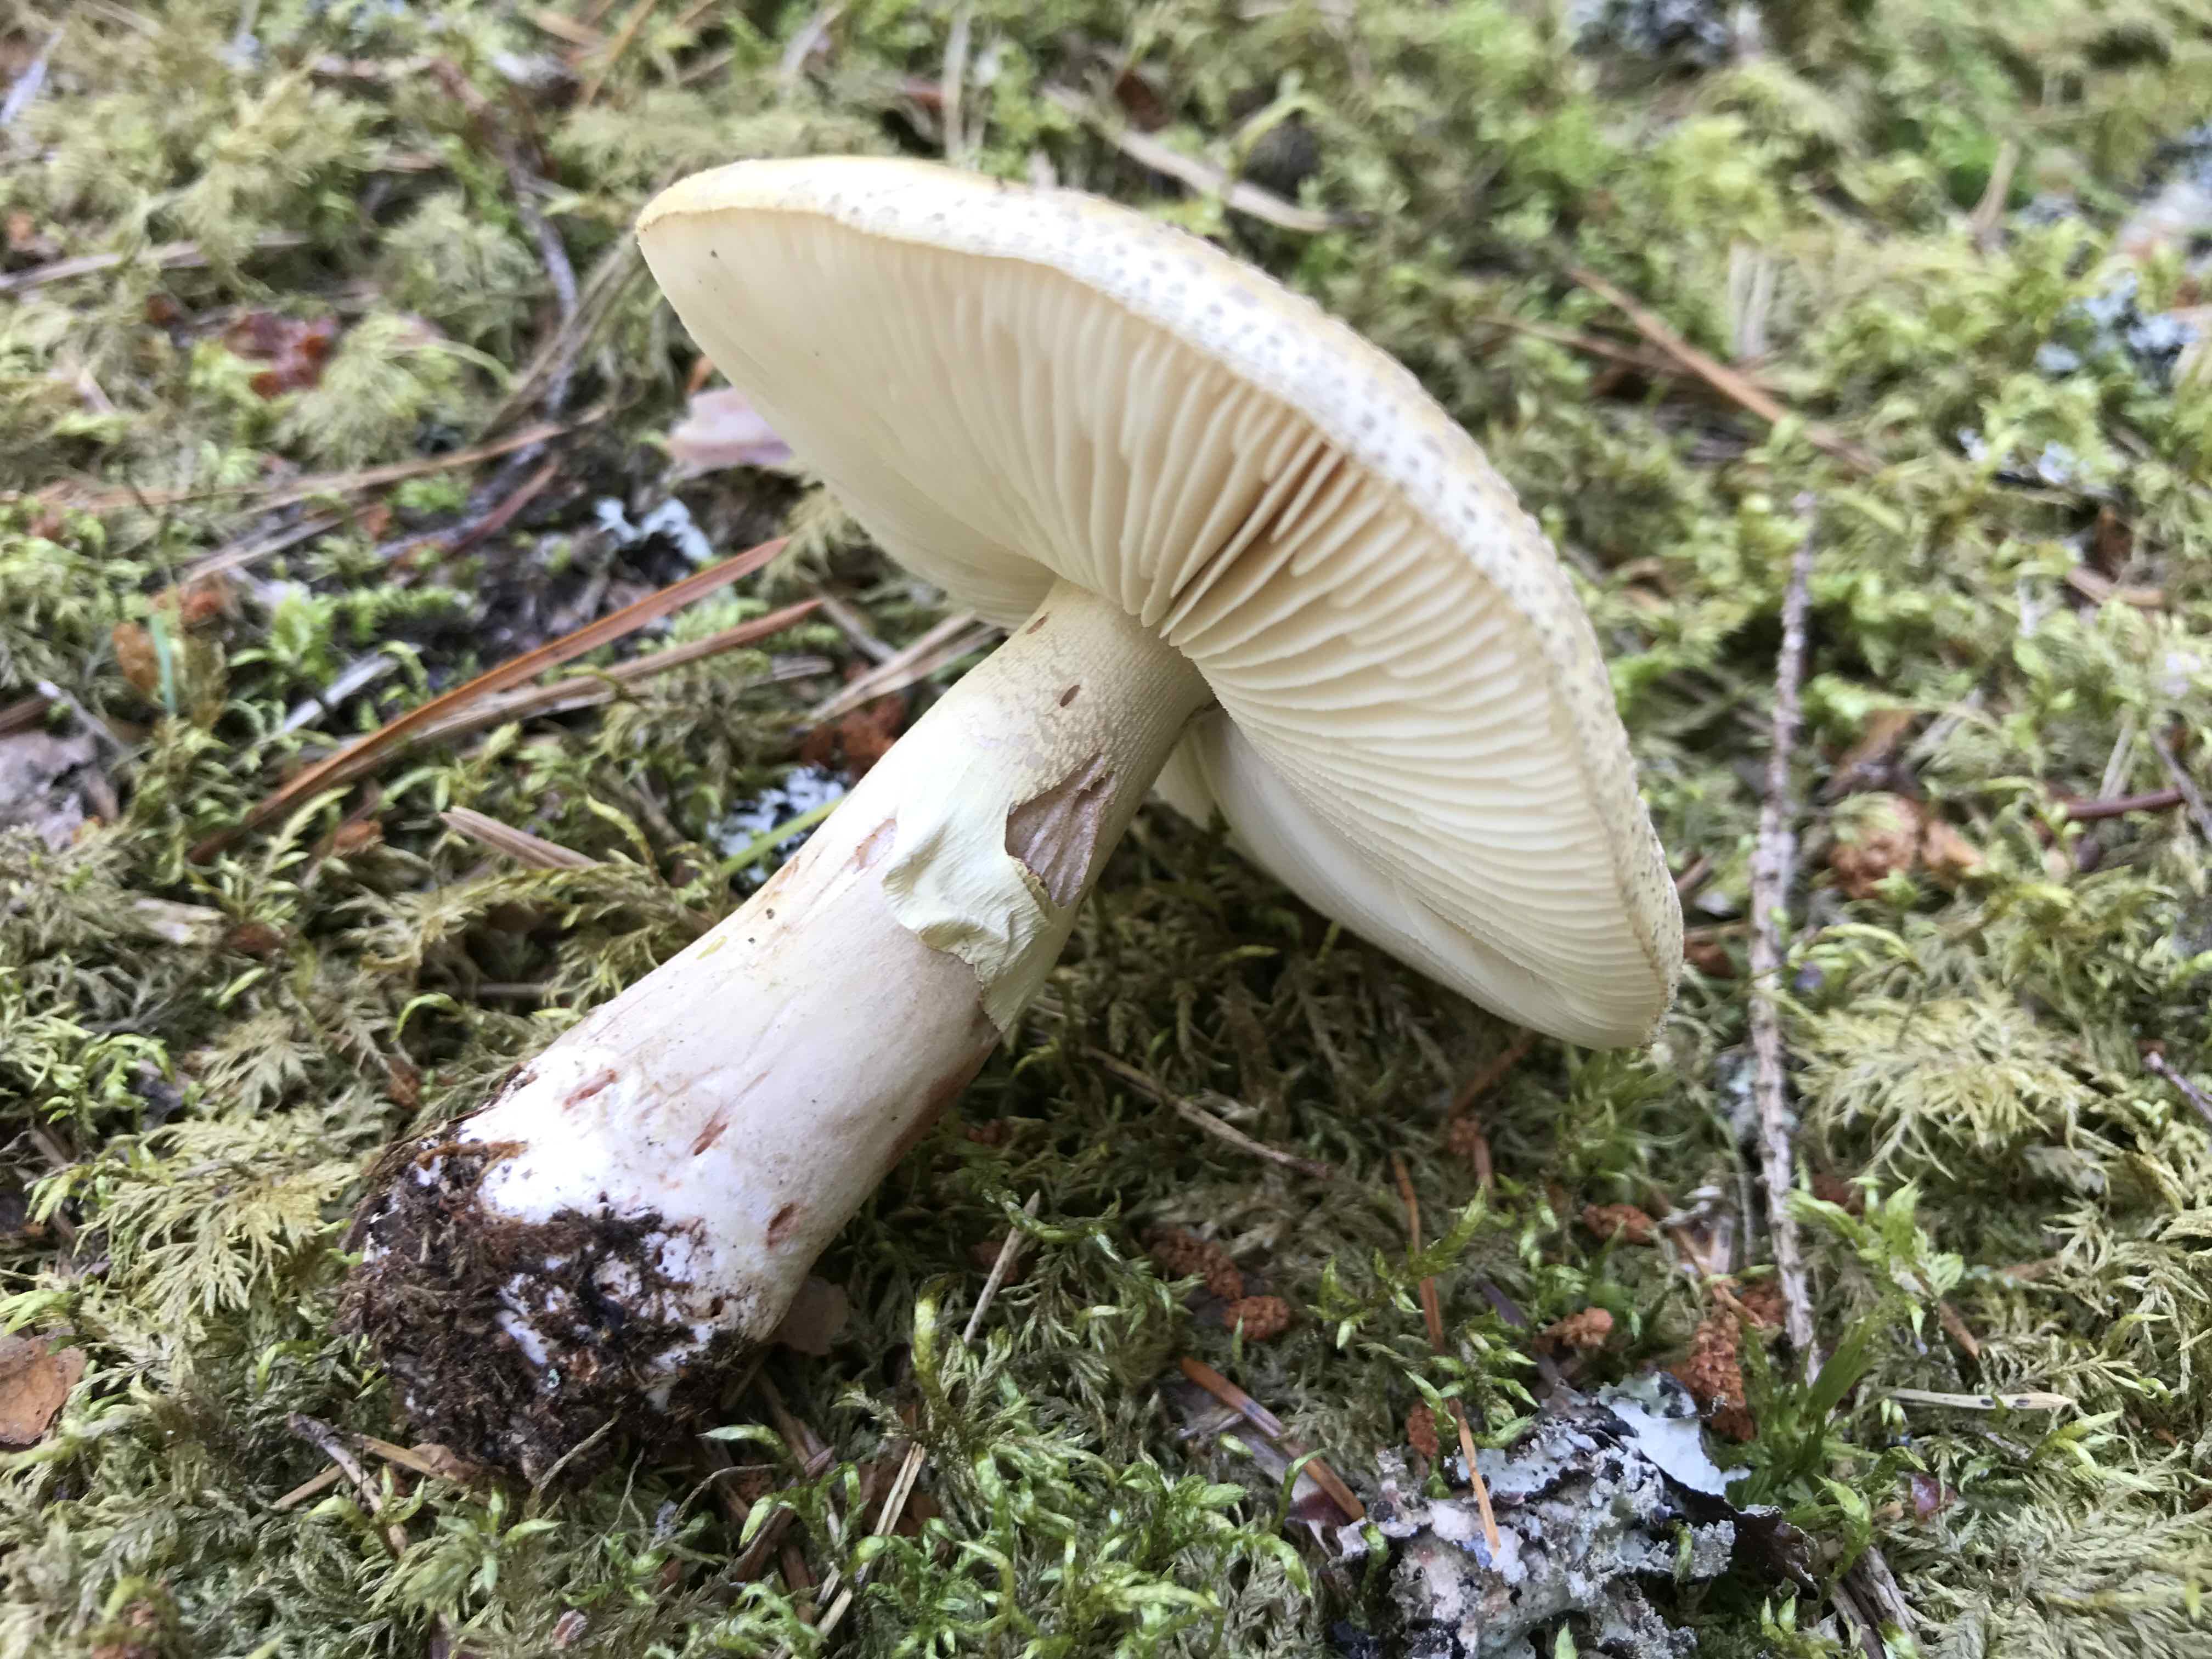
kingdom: Fungi
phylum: Basidiomycota
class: Agaricomycetes
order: Agaricales
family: Amanitaceae
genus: Amanita
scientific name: Amanita rubescens
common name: Blusher
